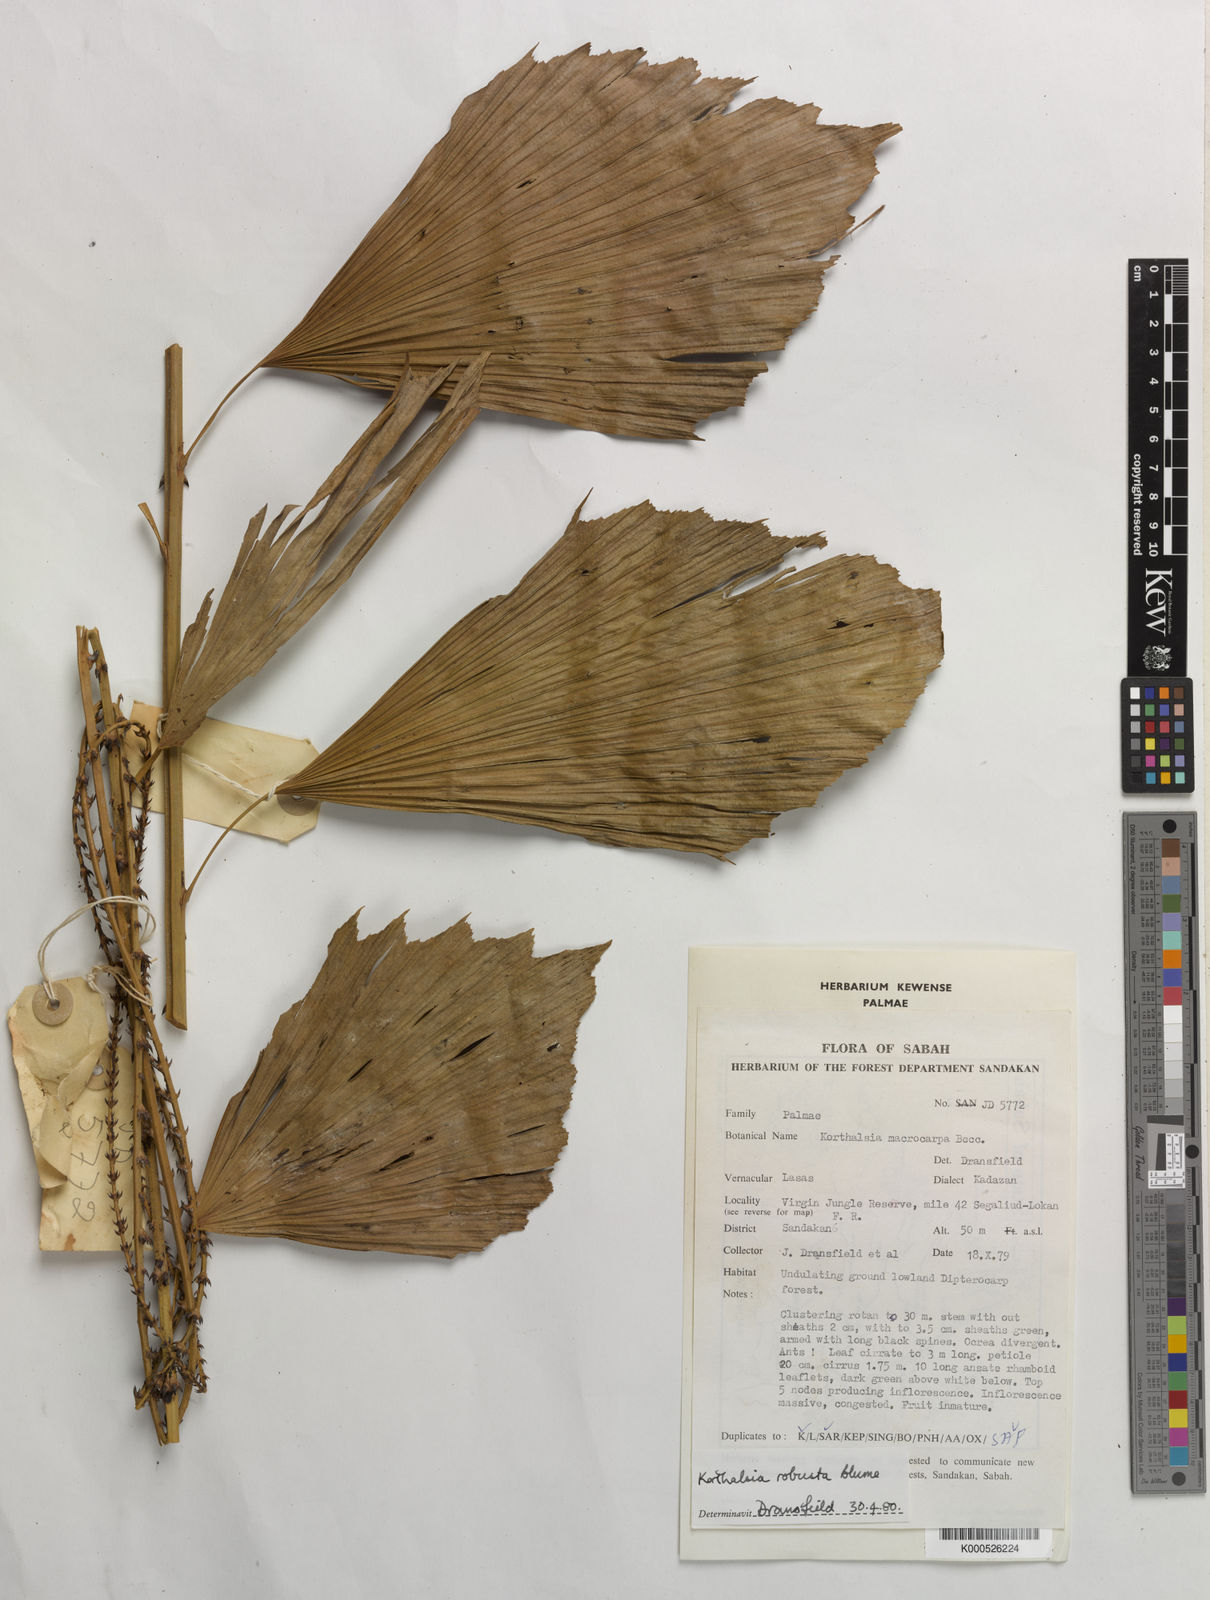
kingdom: Plantae
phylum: Tracheophyta
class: Liliopsida
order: Arecales
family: Arecaceae
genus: Korthalsia
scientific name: Korthalsia robusta
